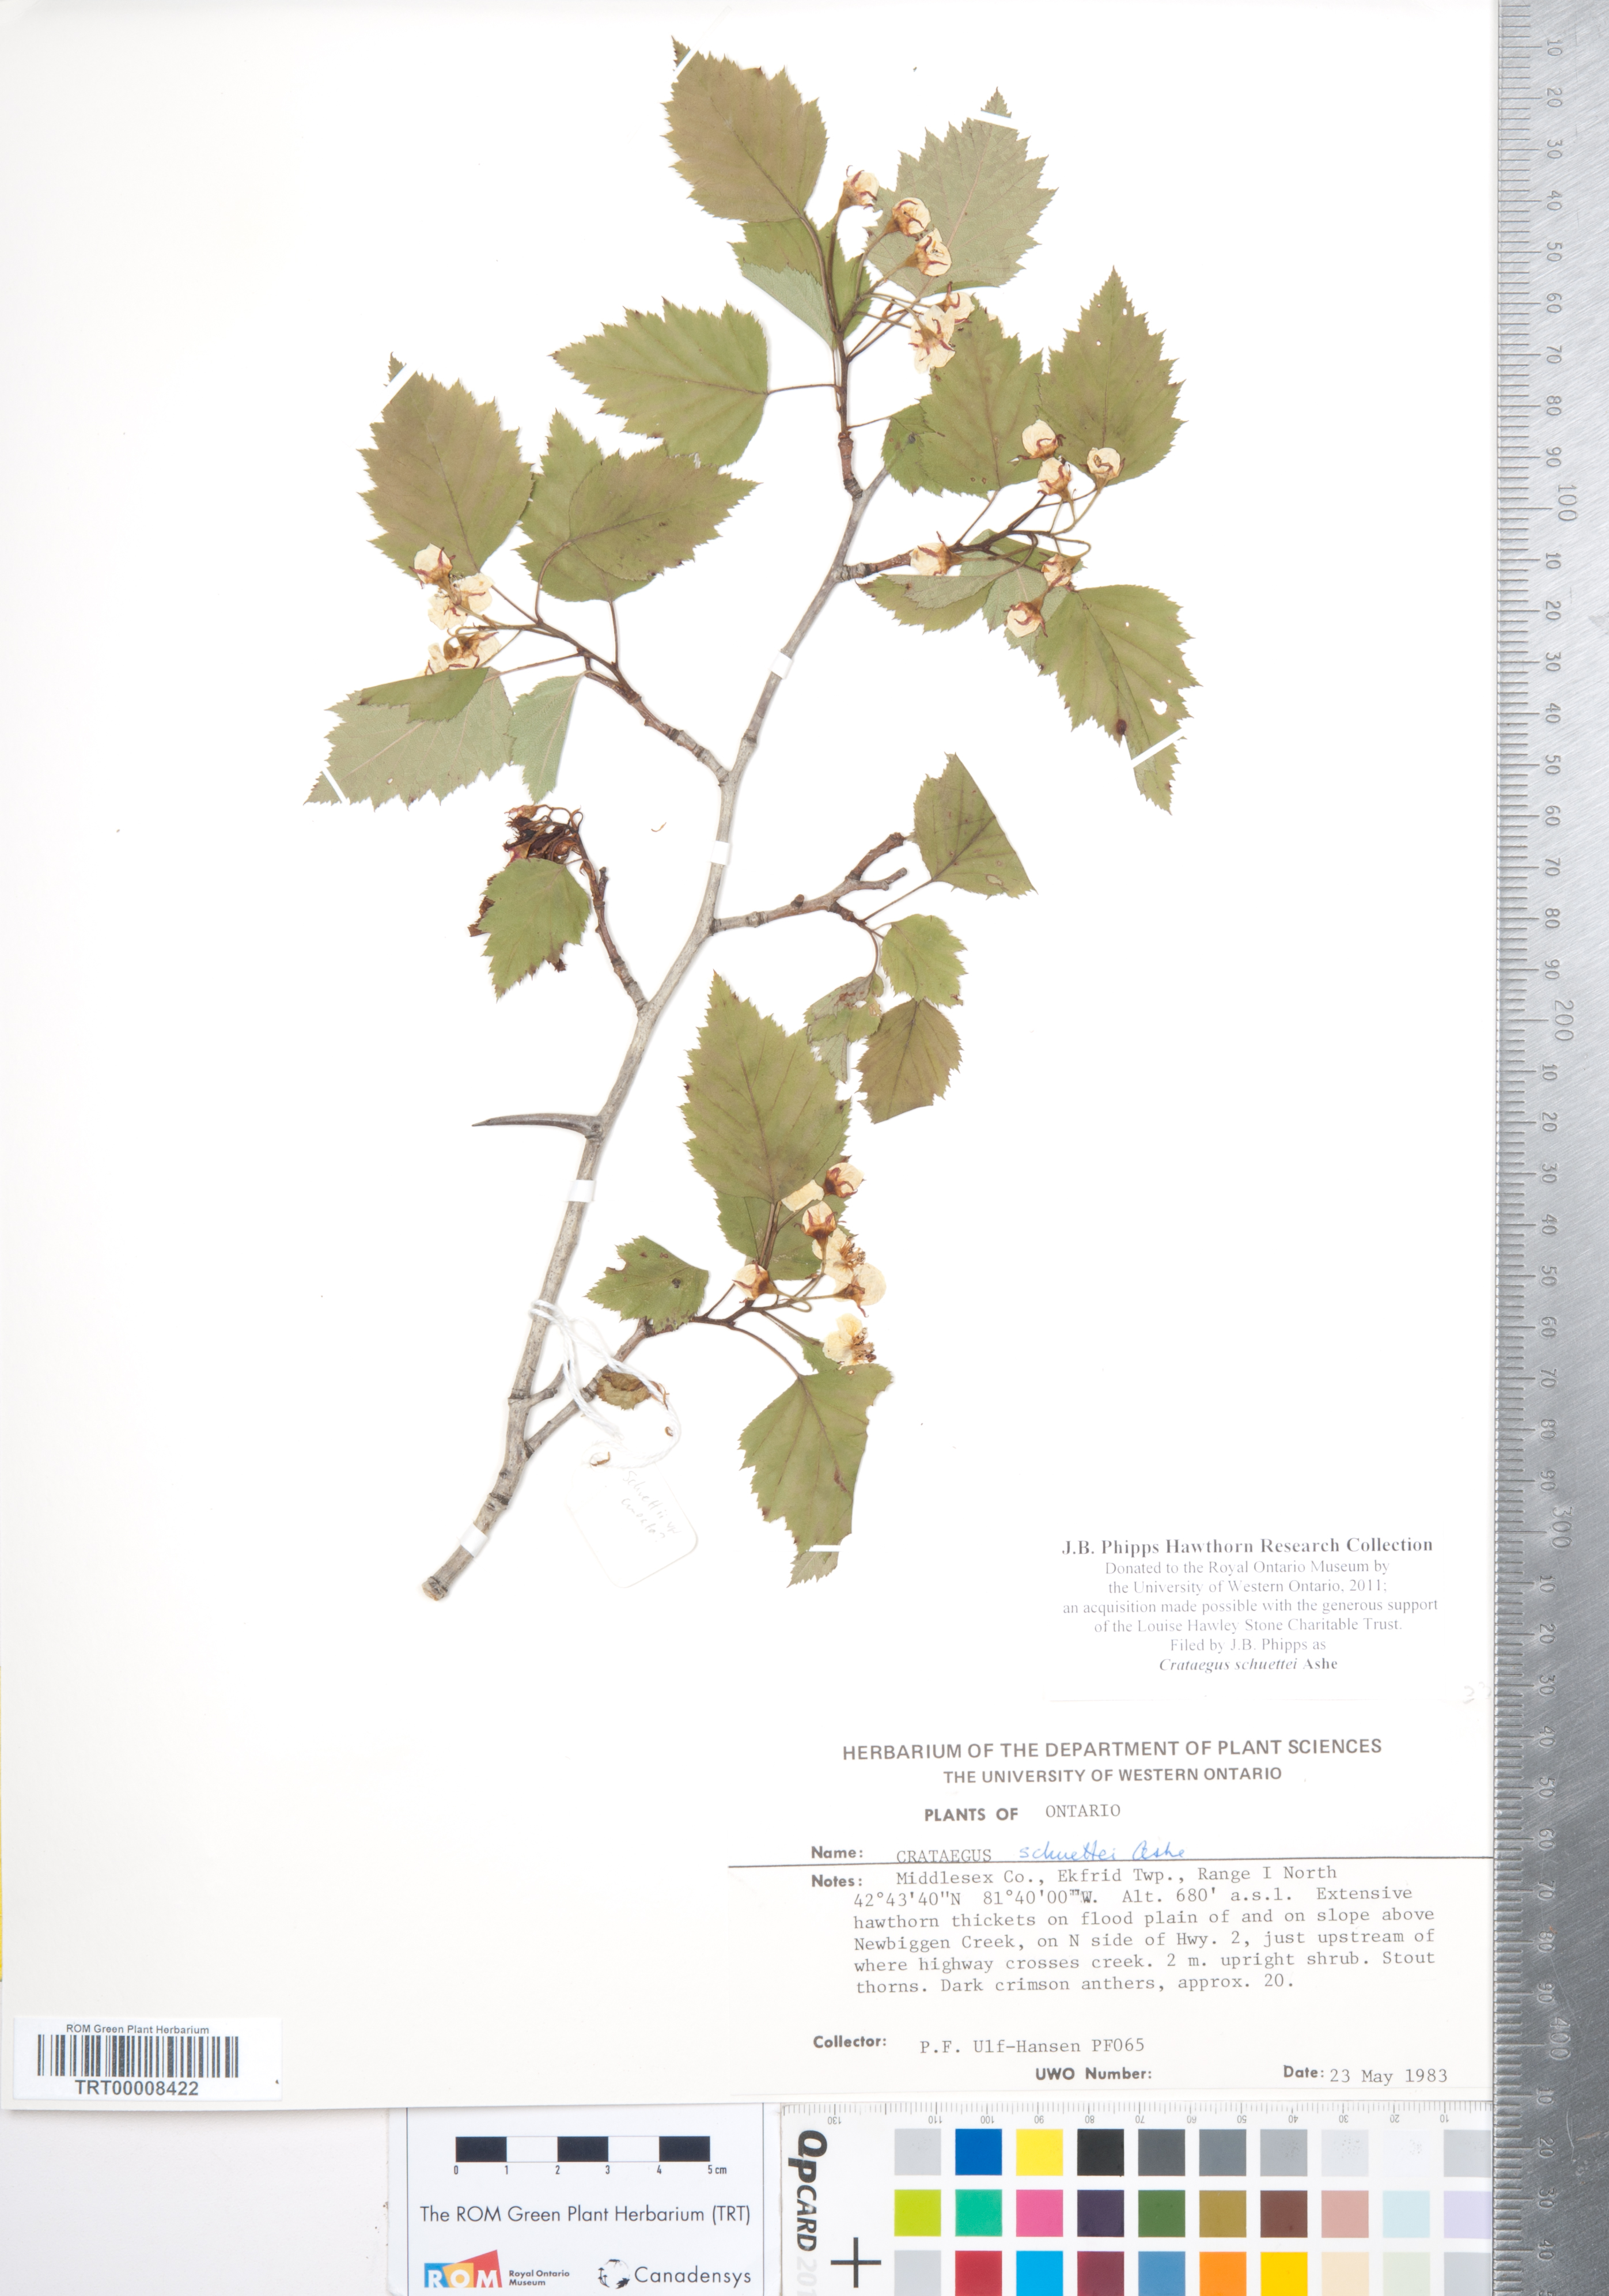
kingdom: Plantae
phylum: Tracheophyta
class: Magnoliopsida
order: Rosales
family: Rosaceae
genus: Crataegus
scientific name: Crataegus schuettei
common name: Schuette's hawthorn
